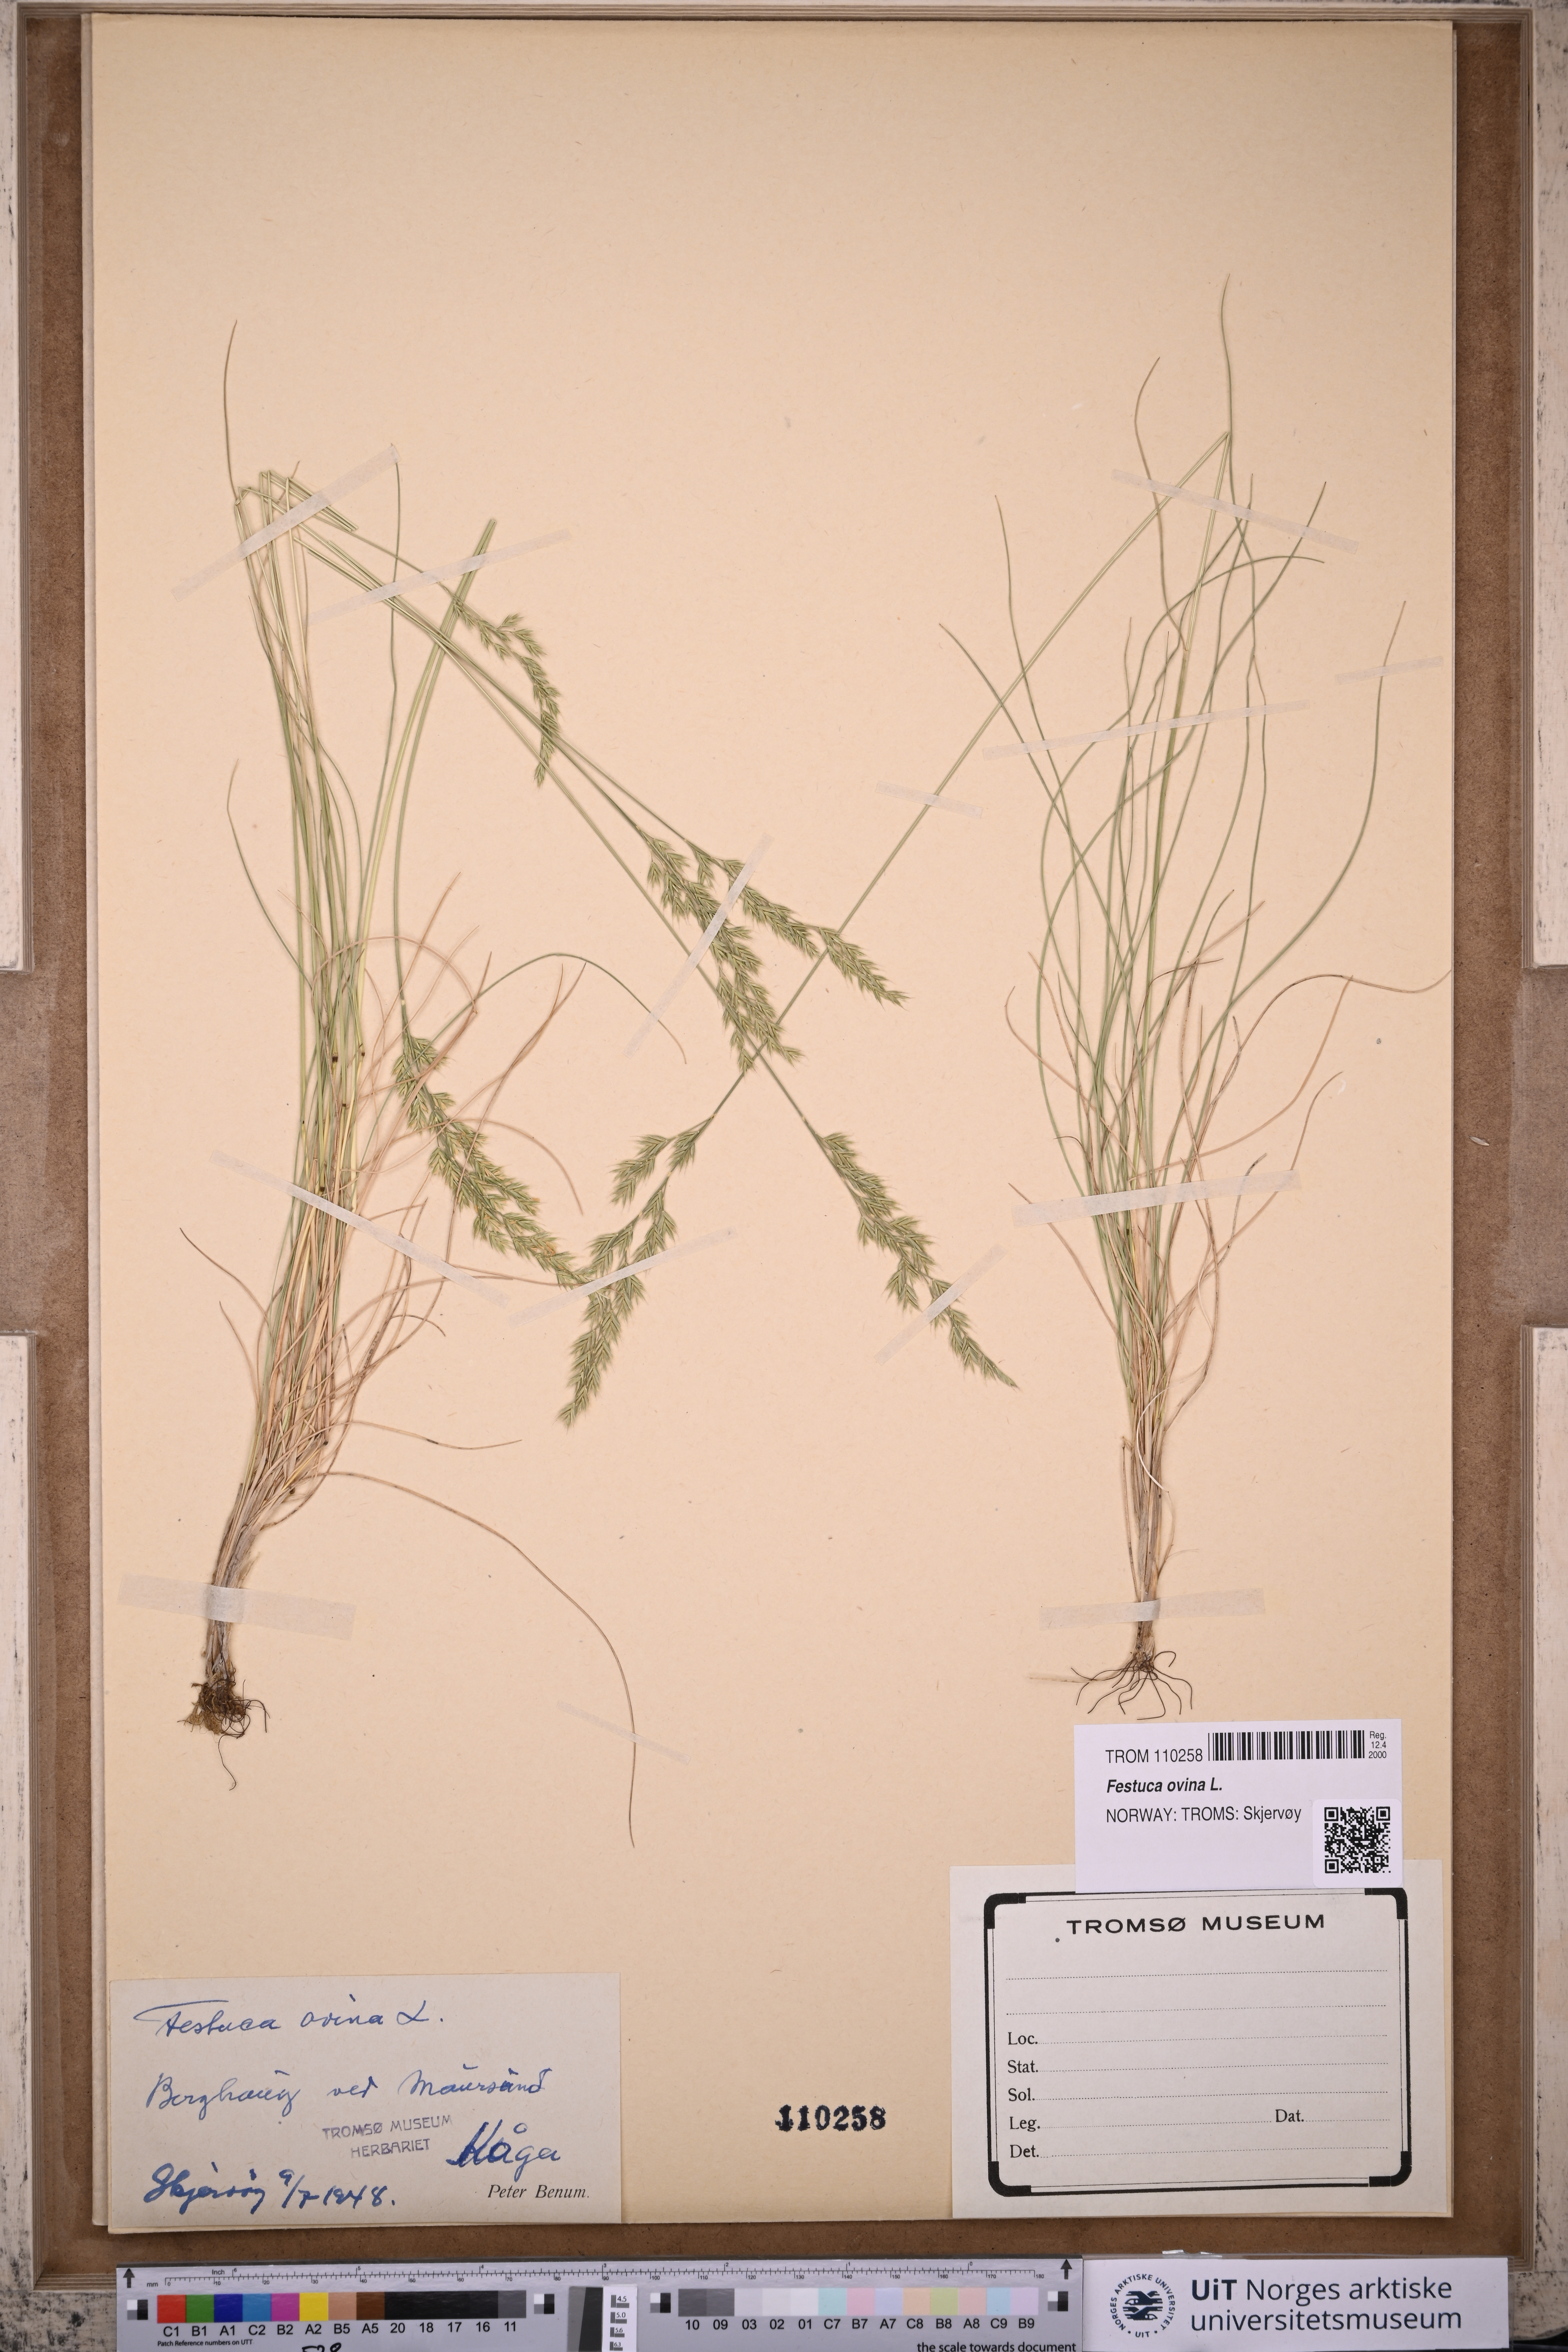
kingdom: Plantae
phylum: Tracheophyta
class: Liliopsida
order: Poales
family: Poaceae
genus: Festuca
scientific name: Festuca ovina
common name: Sheep fescue
